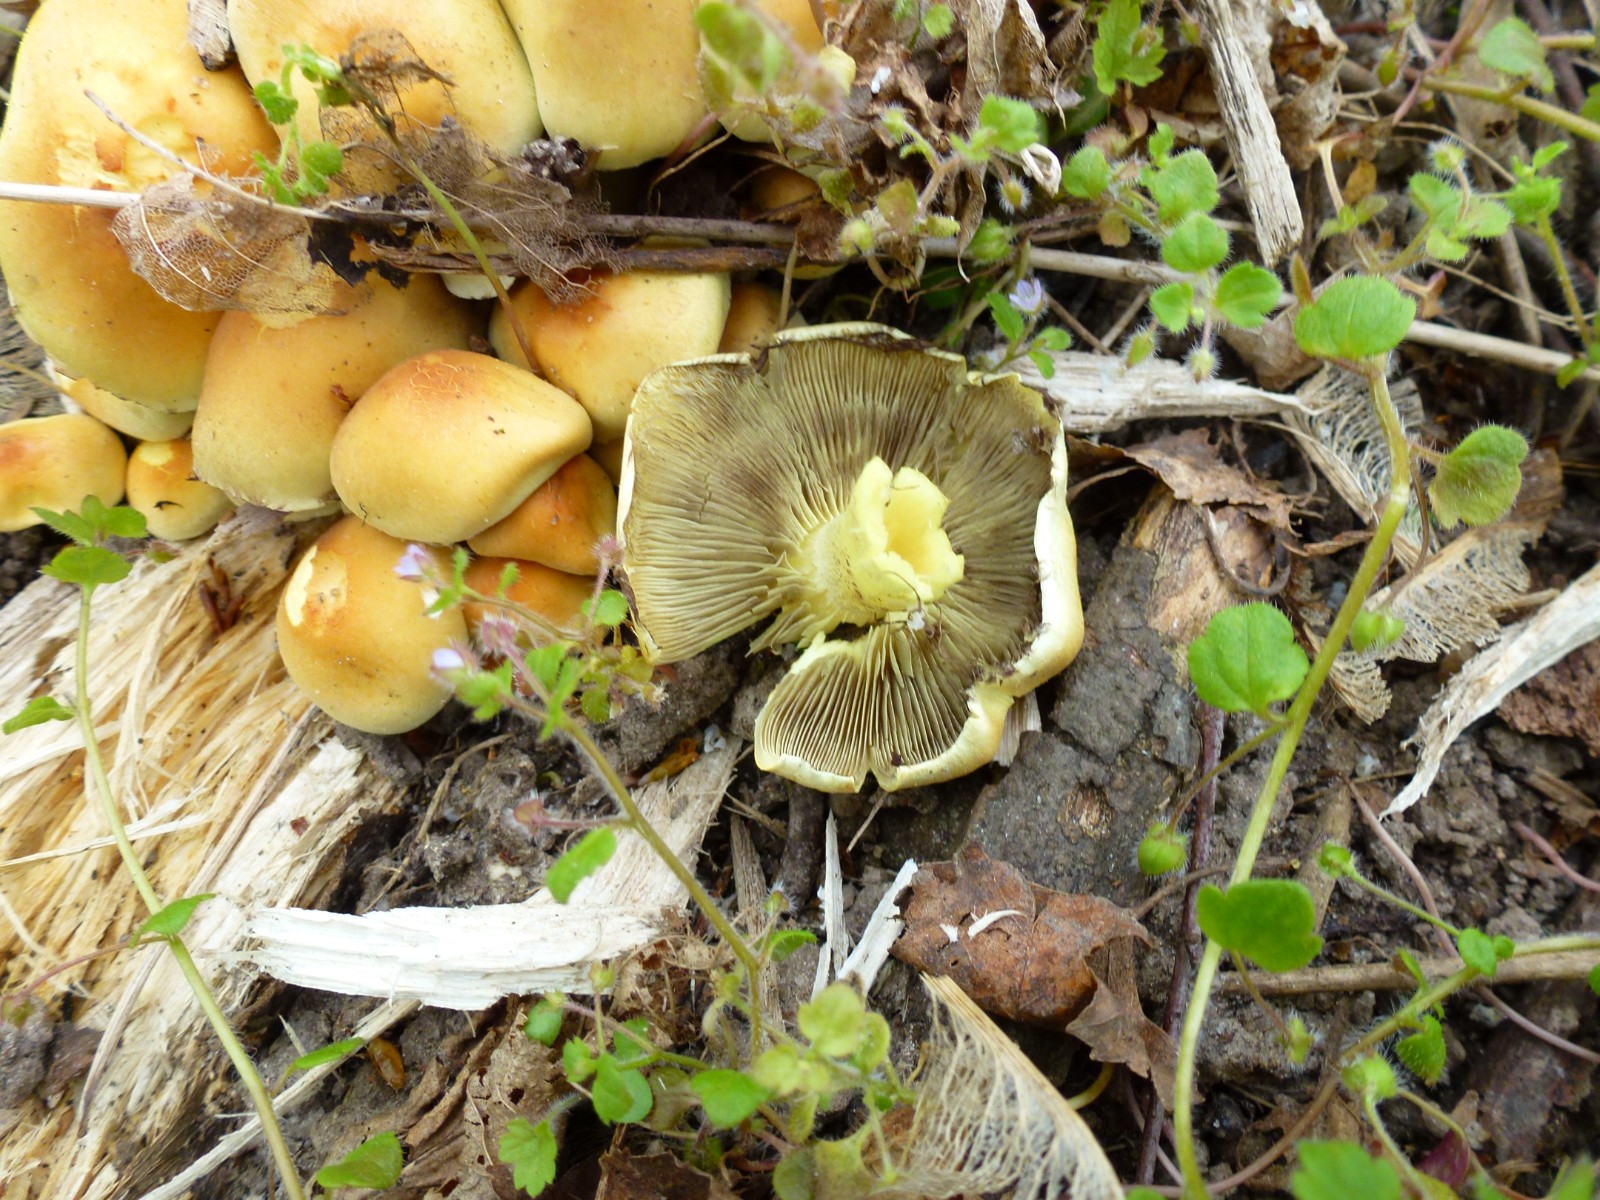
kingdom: Fungi
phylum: Basidiomycota
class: Agaricomycetes
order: Agaricales
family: Strophariaceae
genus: Hypholoma
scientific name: Hypholoma fasciculare
